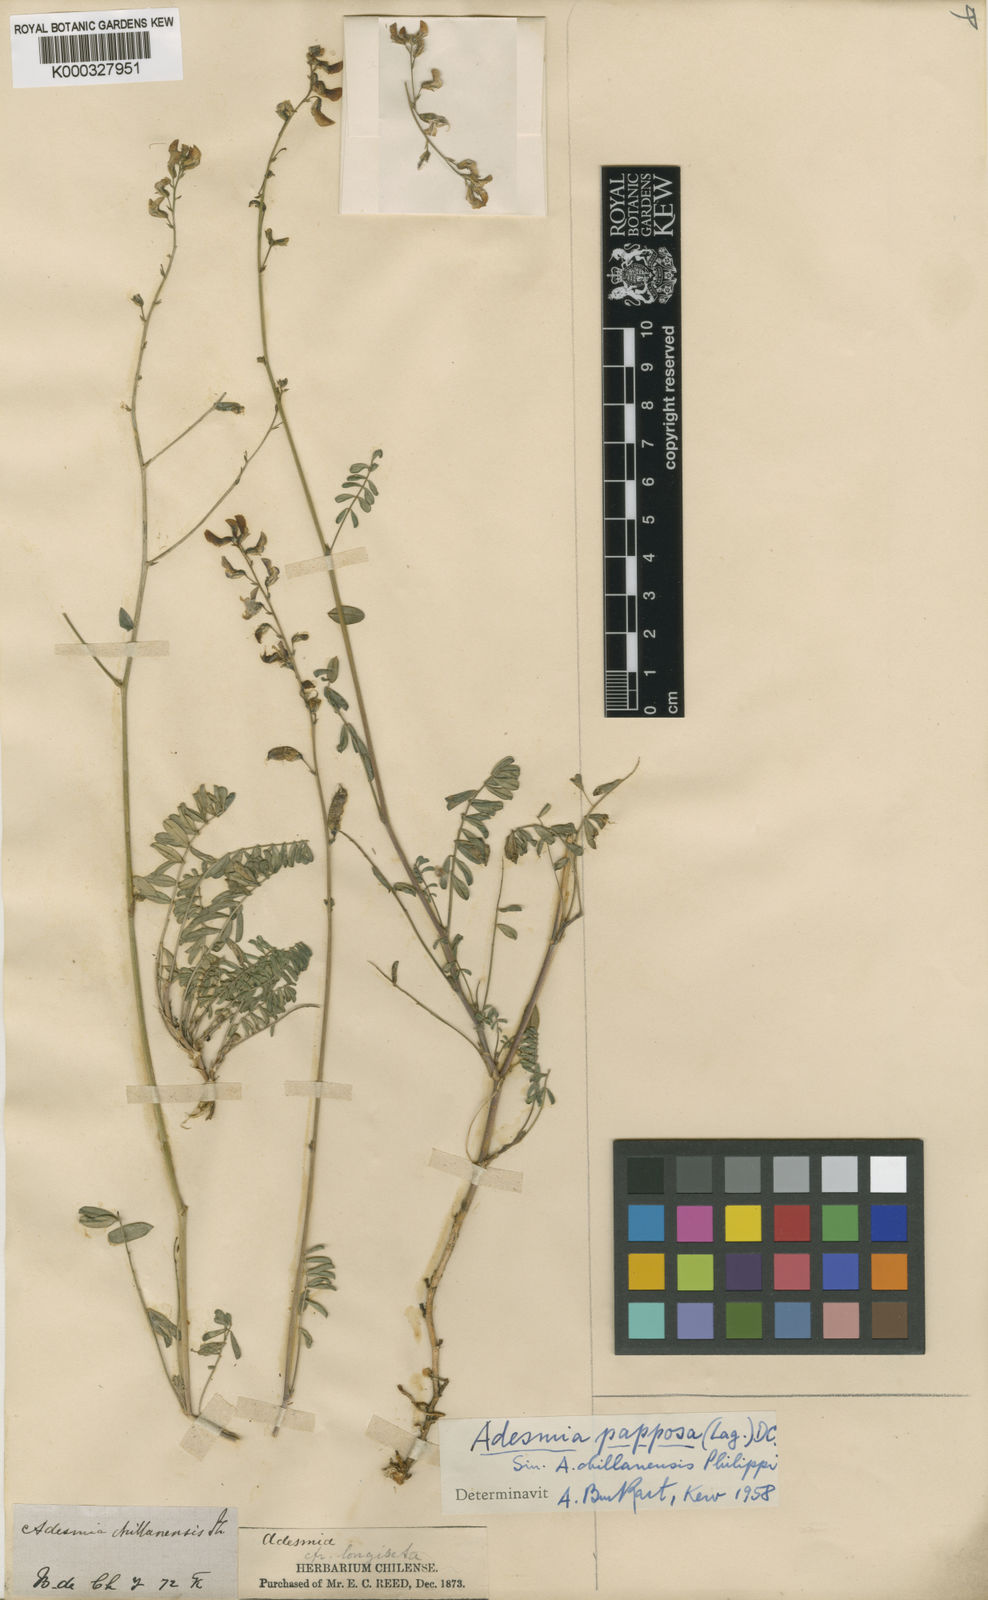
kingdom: Plantae
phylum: Tracheophyta
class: Magnoliopsida
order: Fabales
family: Fabaceae
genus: Adesmia
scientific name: Adesmia papposa
